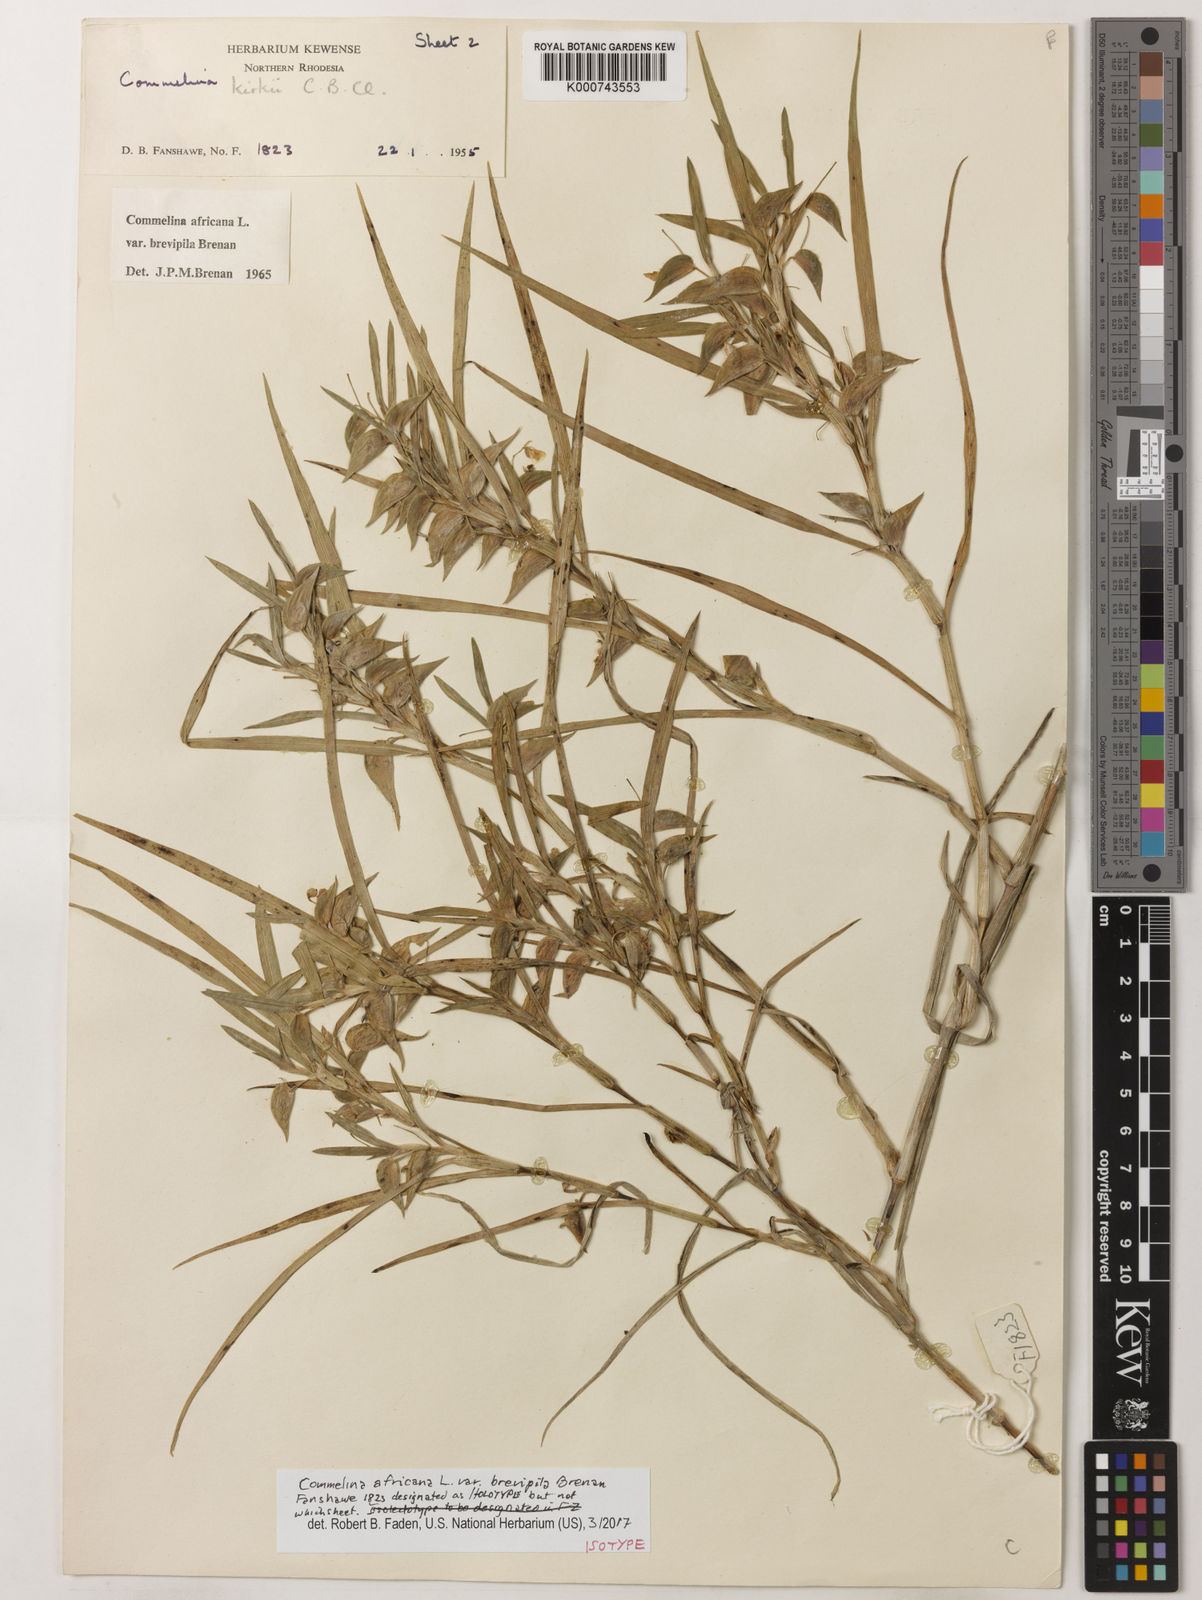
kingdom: Plantae
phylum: Tracheophyta
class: Liliopsida
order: Commelinales
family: Commelinaceae
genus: Commelina
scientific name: Commelina africana
